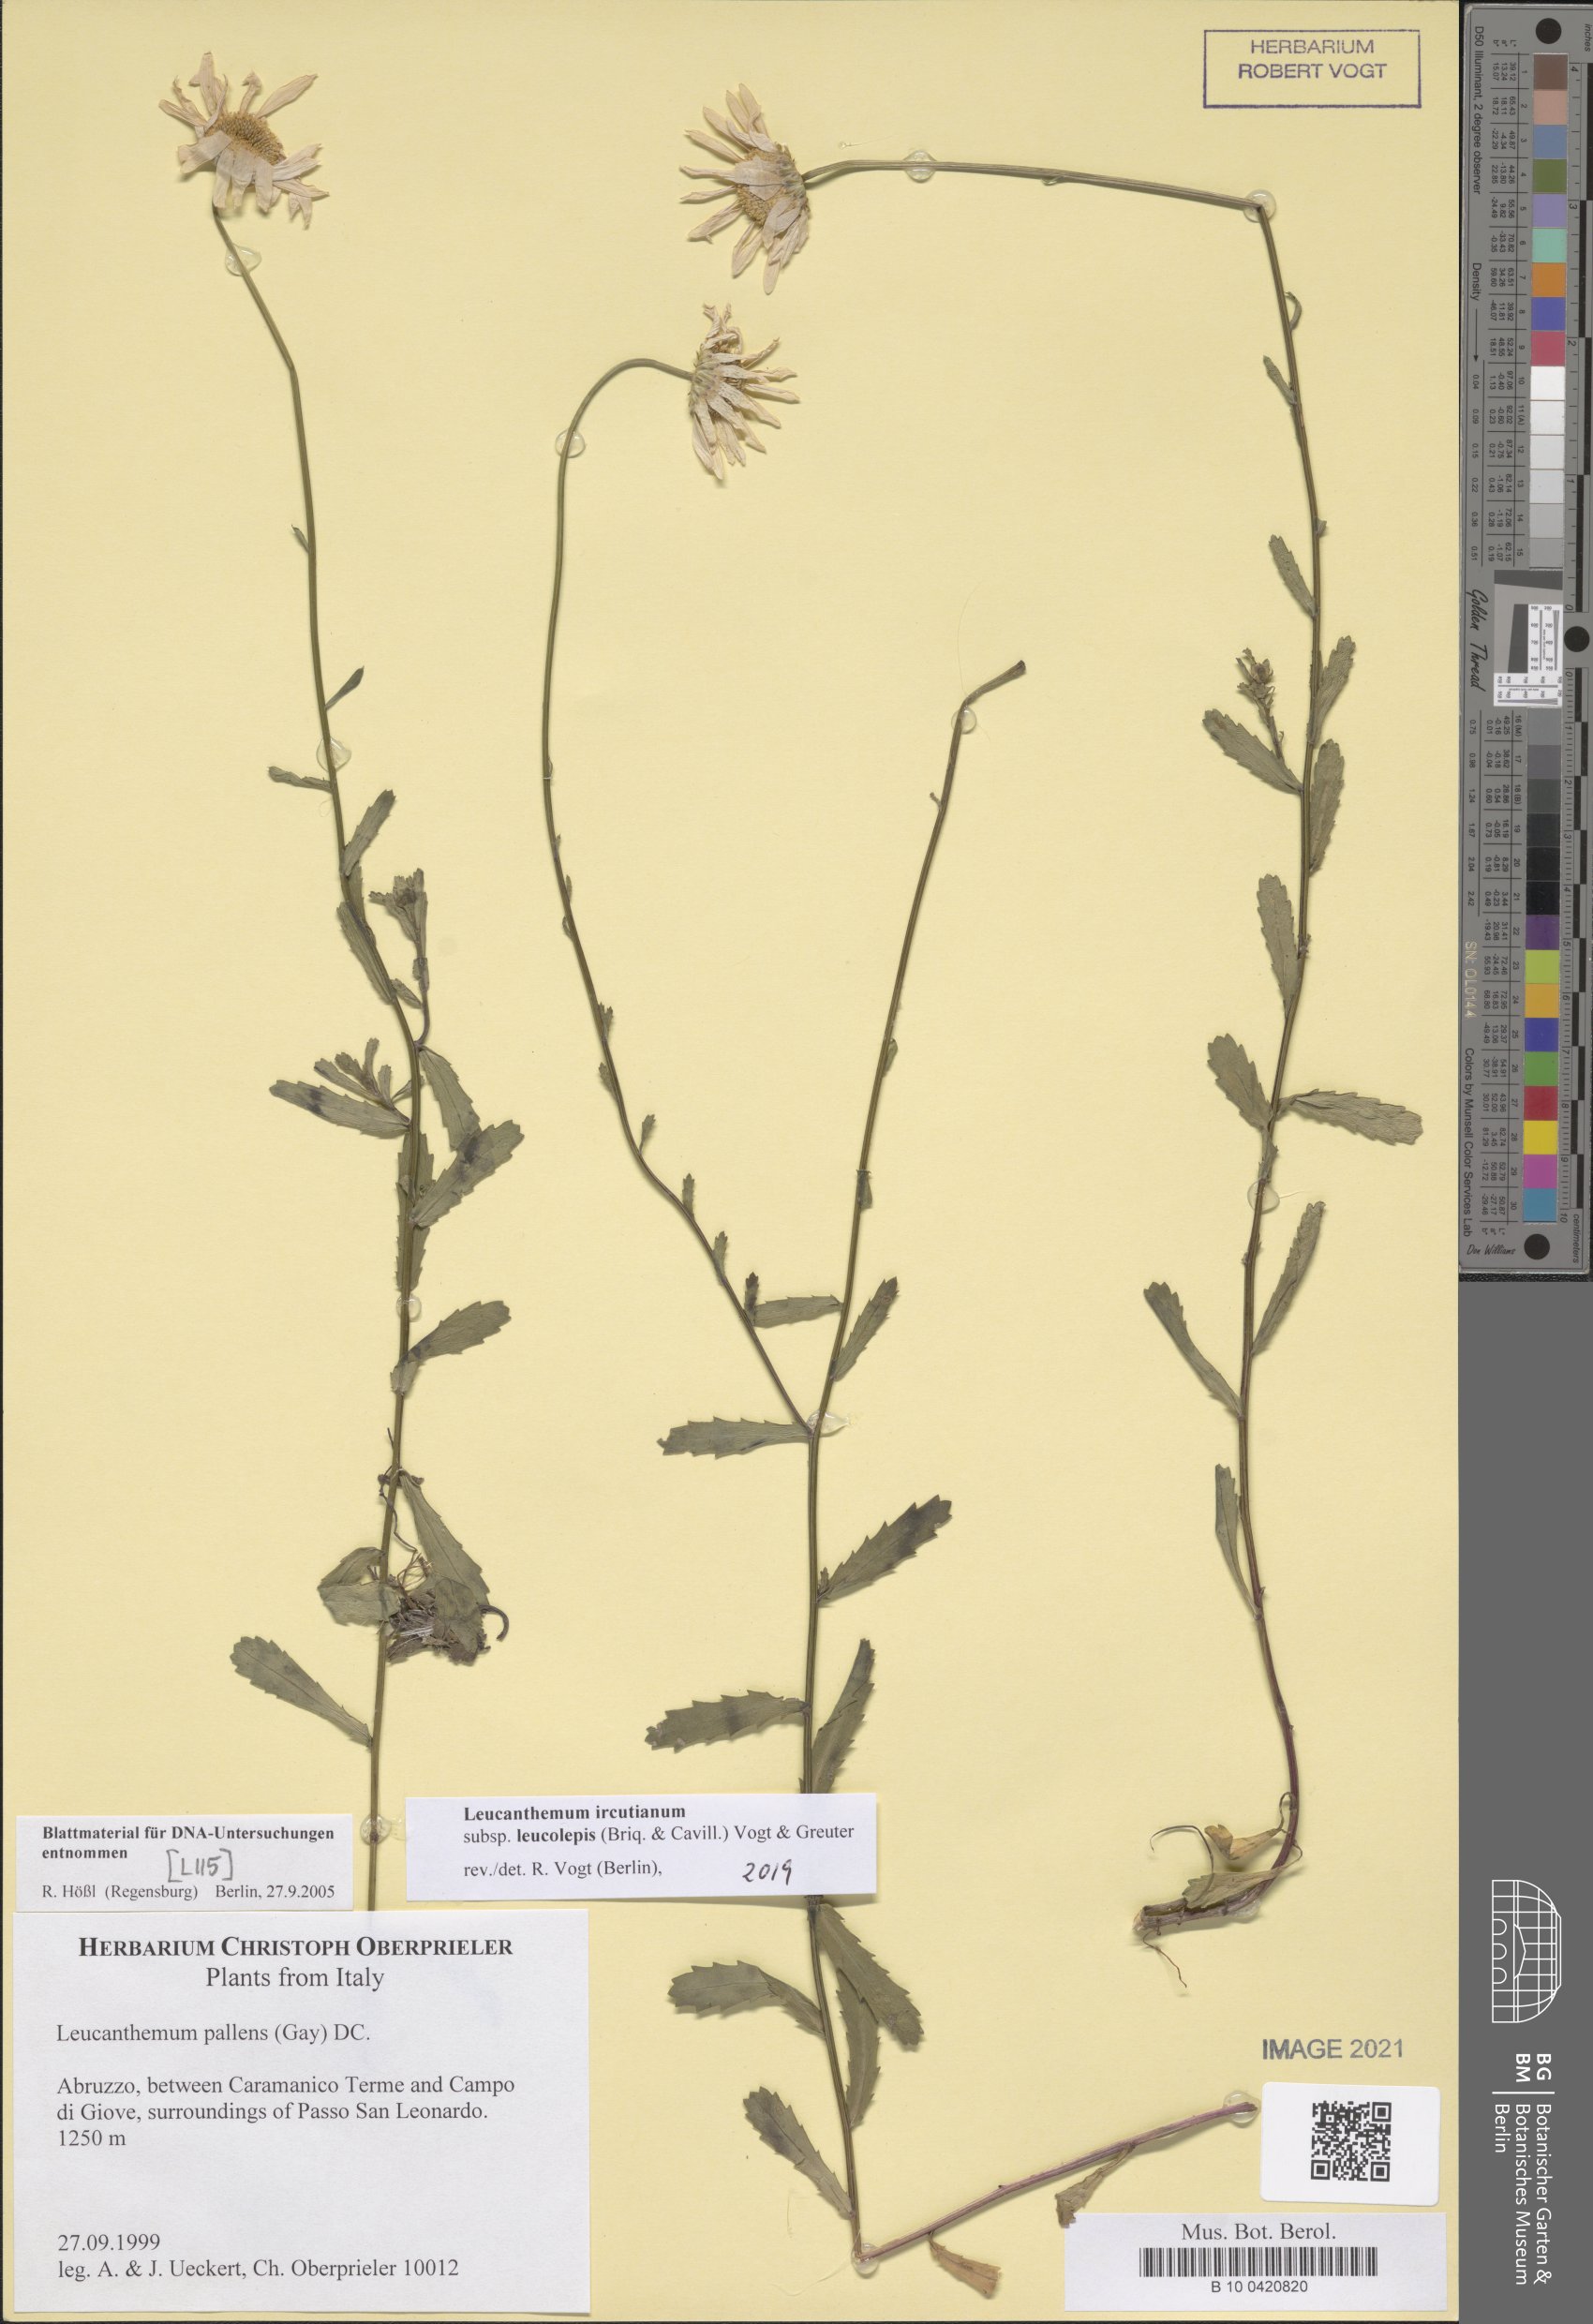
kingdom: Plantae
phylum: Tracheophyta
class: Magnoliopsida
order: Asterales
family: Asteraceae
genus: Leucanthemum
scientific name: Leucanthemum ircutianum
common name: Daisy
